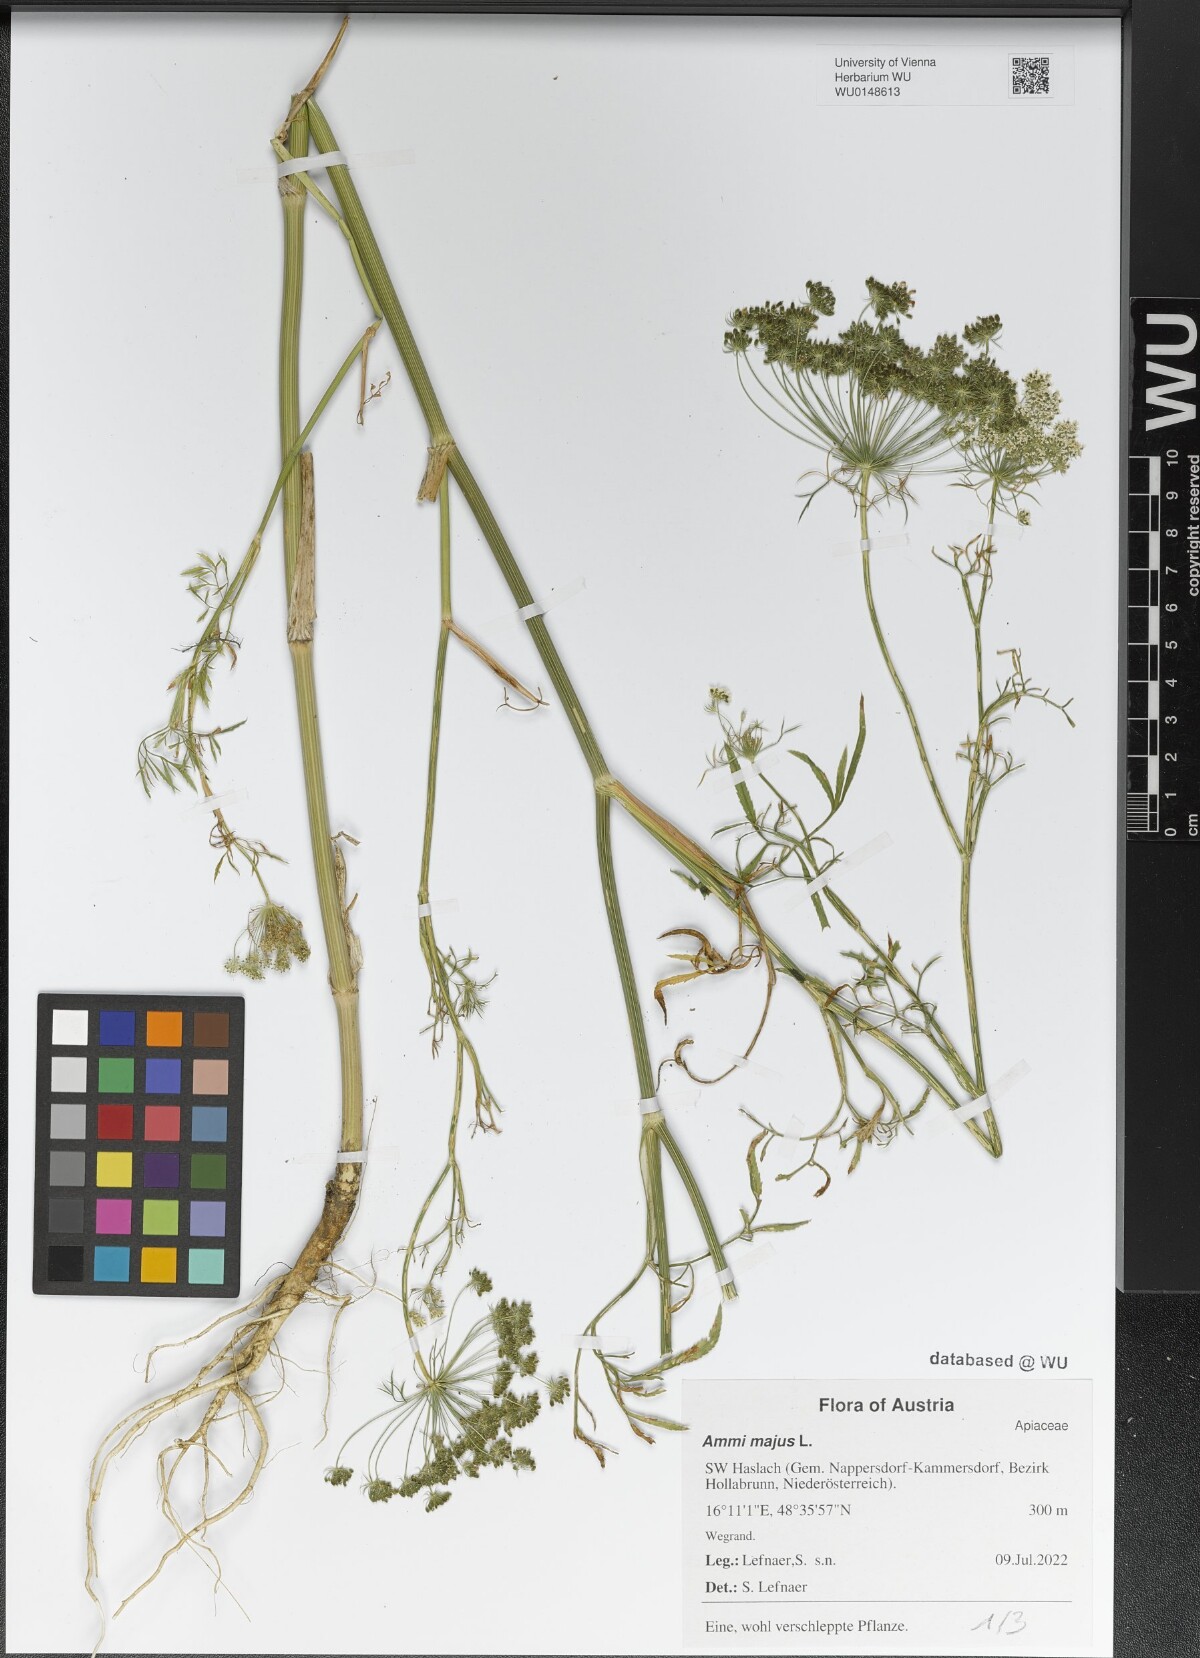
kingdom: Plantae
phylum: Tracheophyta
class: Magnoliopsida
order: Apiales
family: Apiaceae
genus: Ammi
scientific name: Ammi majus
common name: Bullwort
